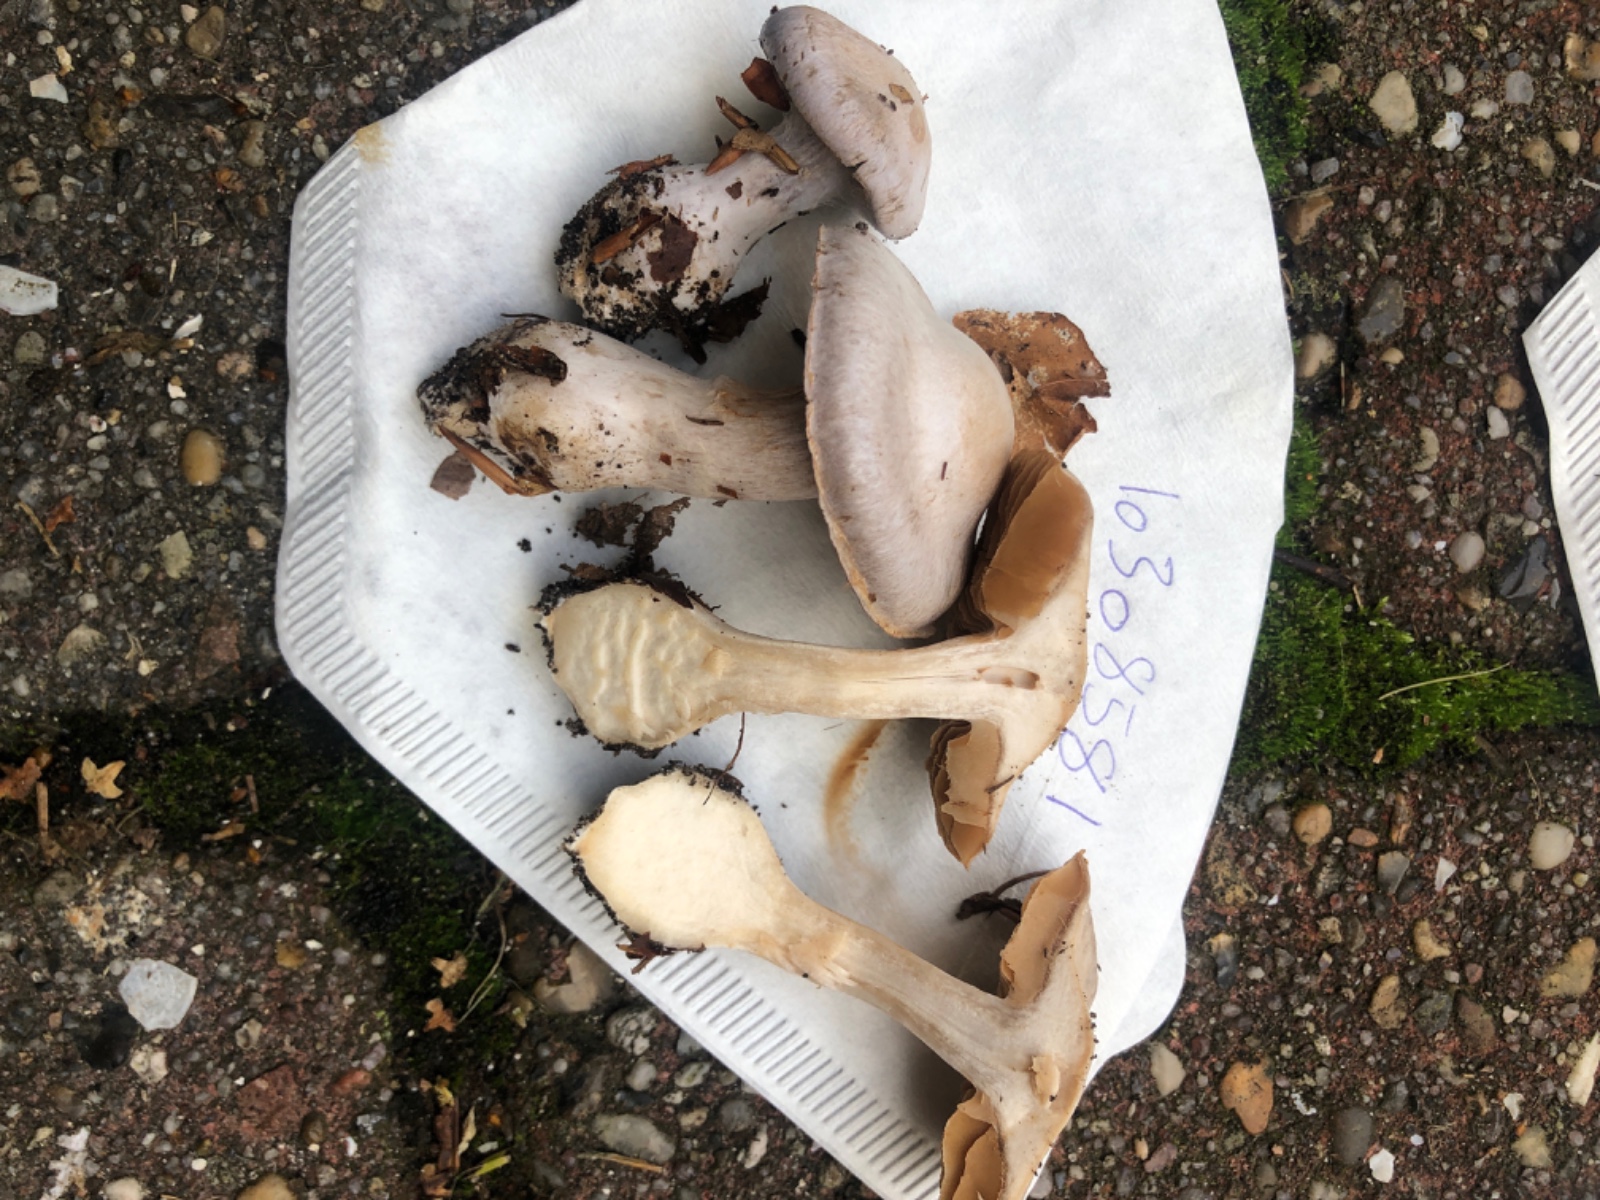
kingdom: Fungi
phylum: Basidiomycota
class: Agaricomycetes
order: Agaricales
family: Cortinariaceae
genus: Cortinarius
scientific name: Cortinarius
